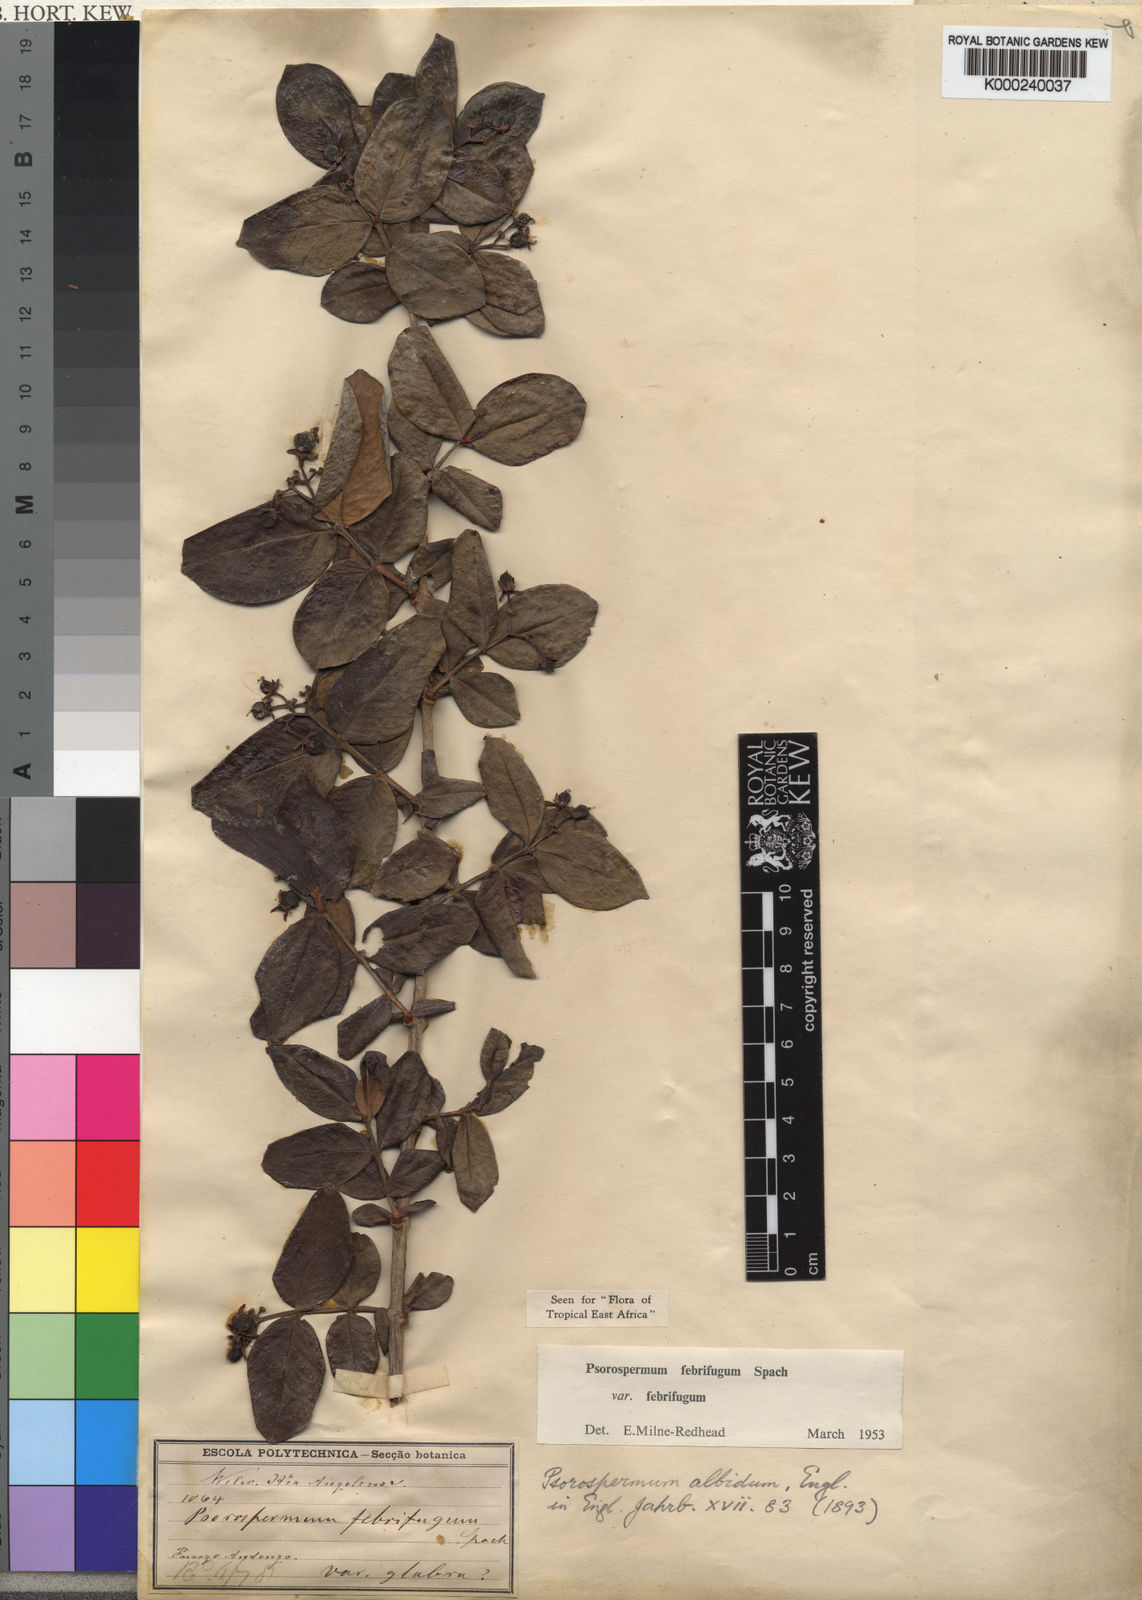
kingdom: Plantae
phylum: Tracheophyta
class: Magnoliopsida
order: Malpighiales
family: Hypericaceae
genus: Psorospermum
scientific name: Psorospermum febrifugum
